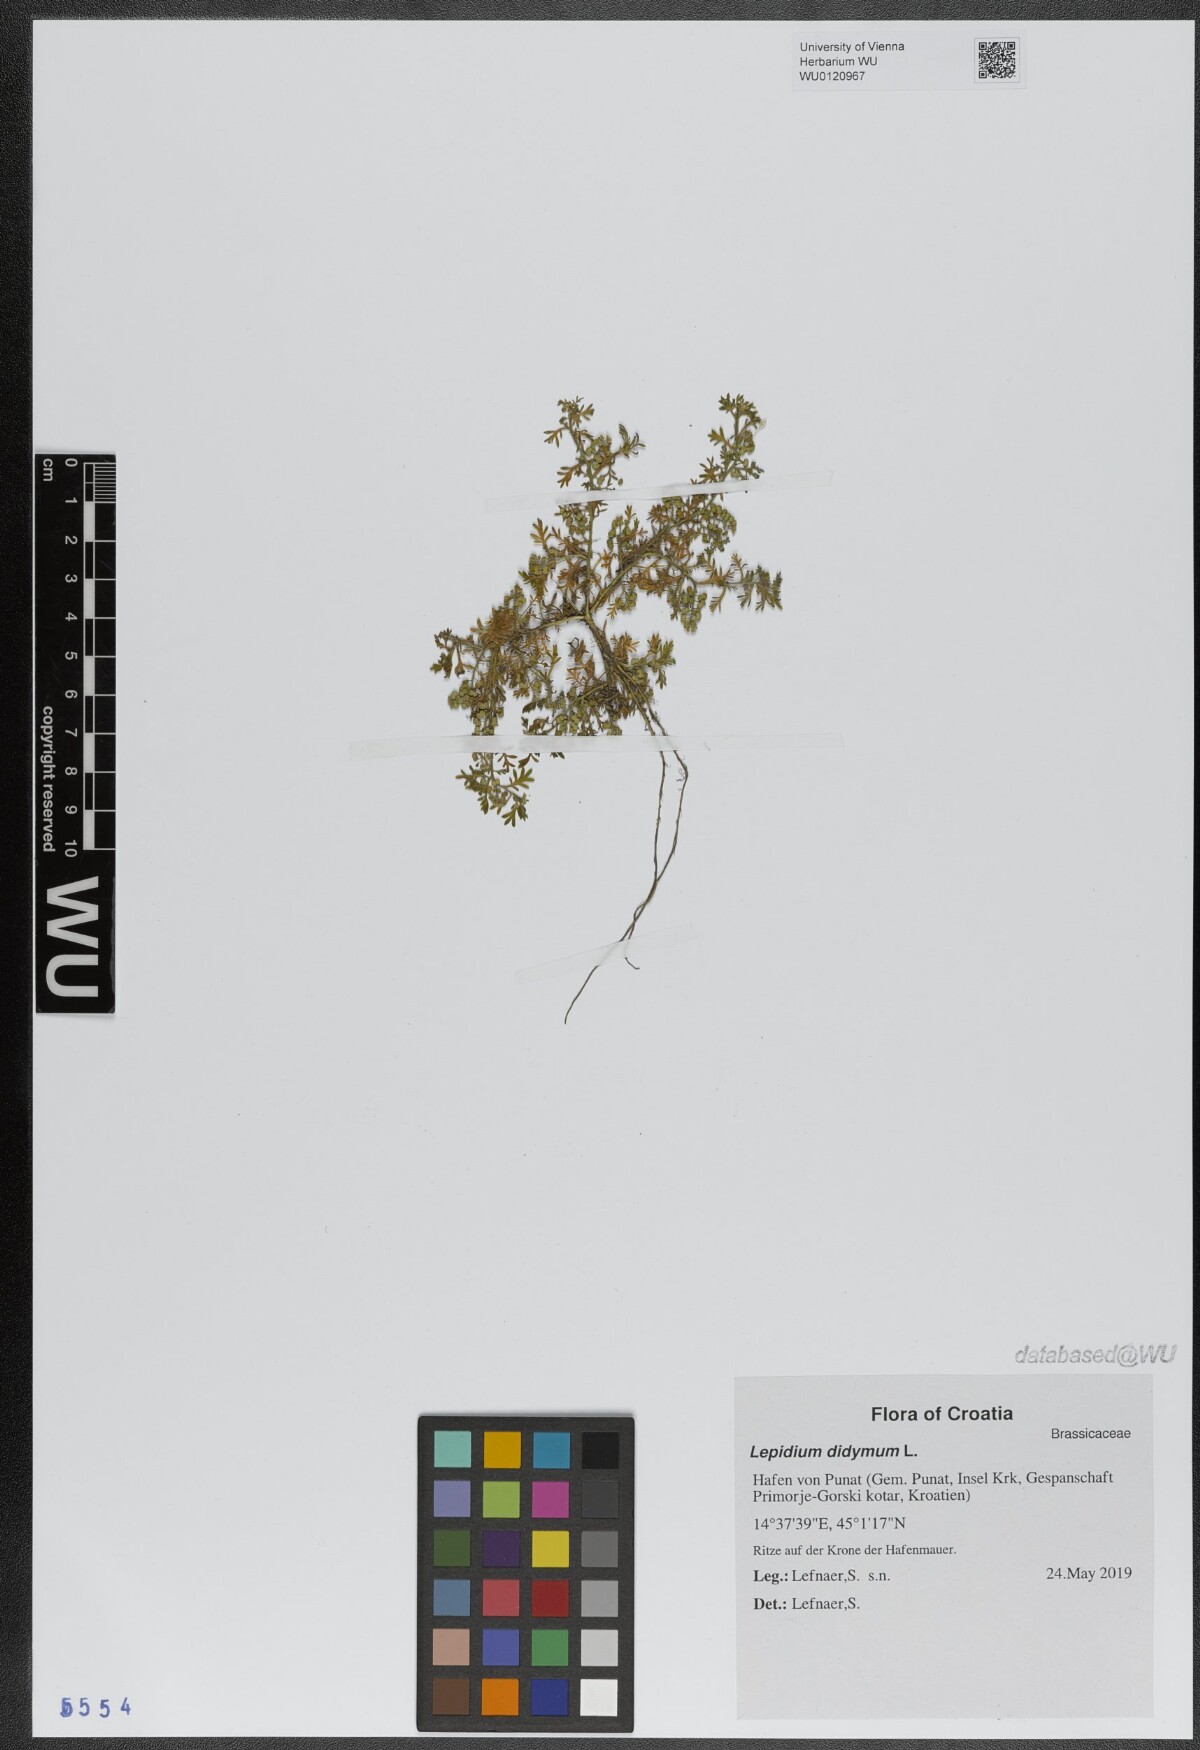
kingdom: Plantae
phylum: Tracheophyta
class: Magnoliopsida
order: Brassicales
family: Brassicaceae
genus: Lepidium
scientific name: Lepidium didymum
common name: Lesser swinecress
